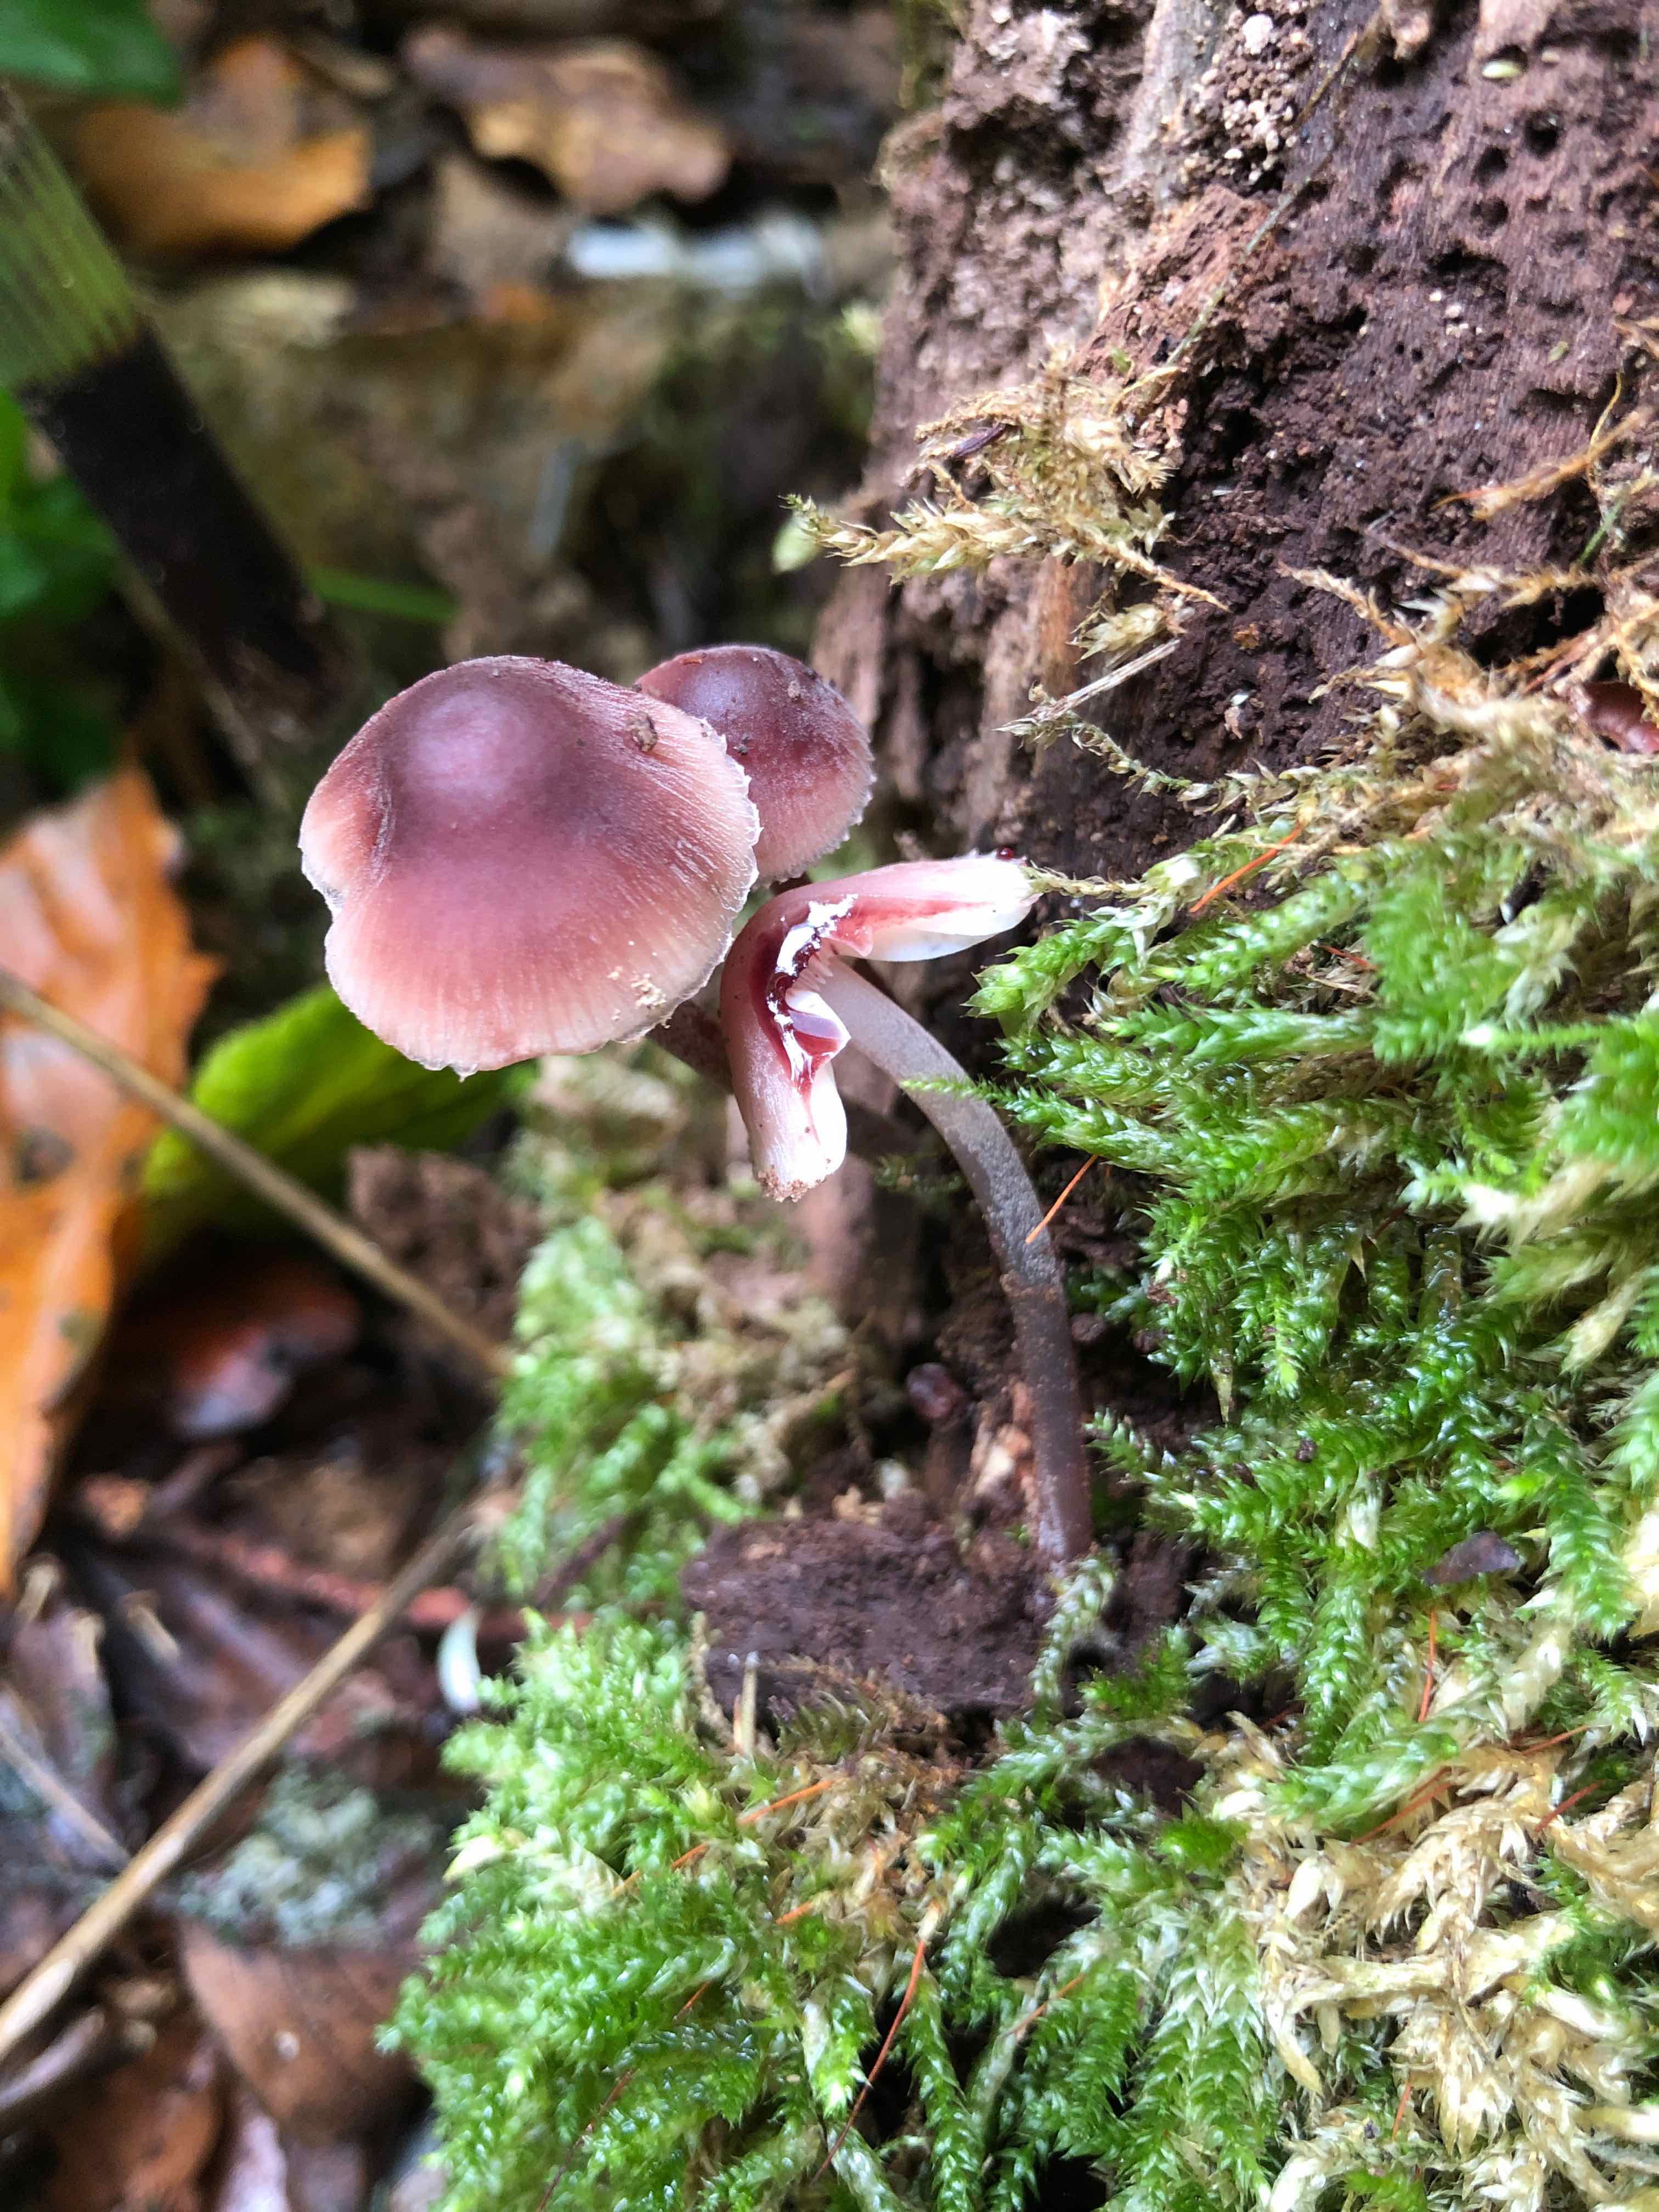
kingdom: Fungi
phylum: Basidiomycota
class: Agaricomycetes
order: Agaricales
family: Mycenaceae
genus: Mycena
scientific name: Mycena haematopus
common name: blødende huesvamp
